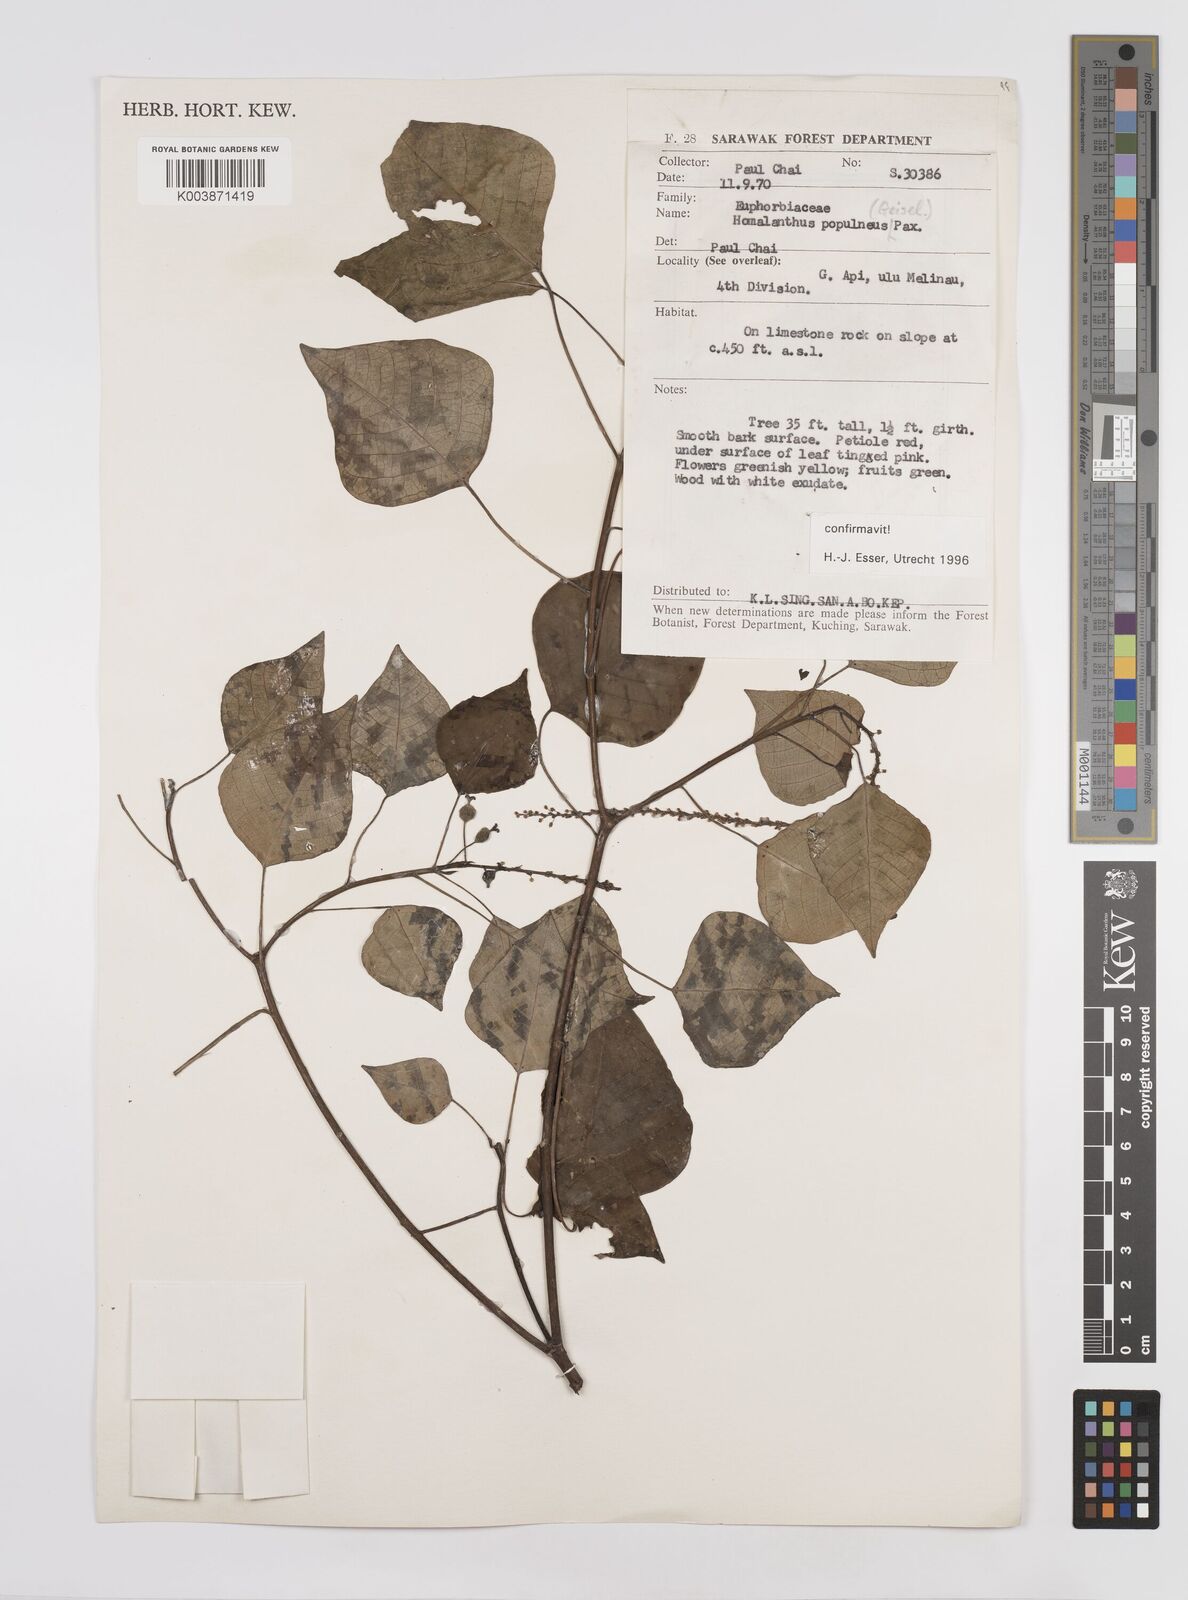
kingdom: Plantae
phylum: Tracheophyta
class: Magnoliopsida
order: Malpighiales
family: Euphorbiaceae
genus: Homalanthus
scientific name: Homalanthus populneus
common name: Spurge
